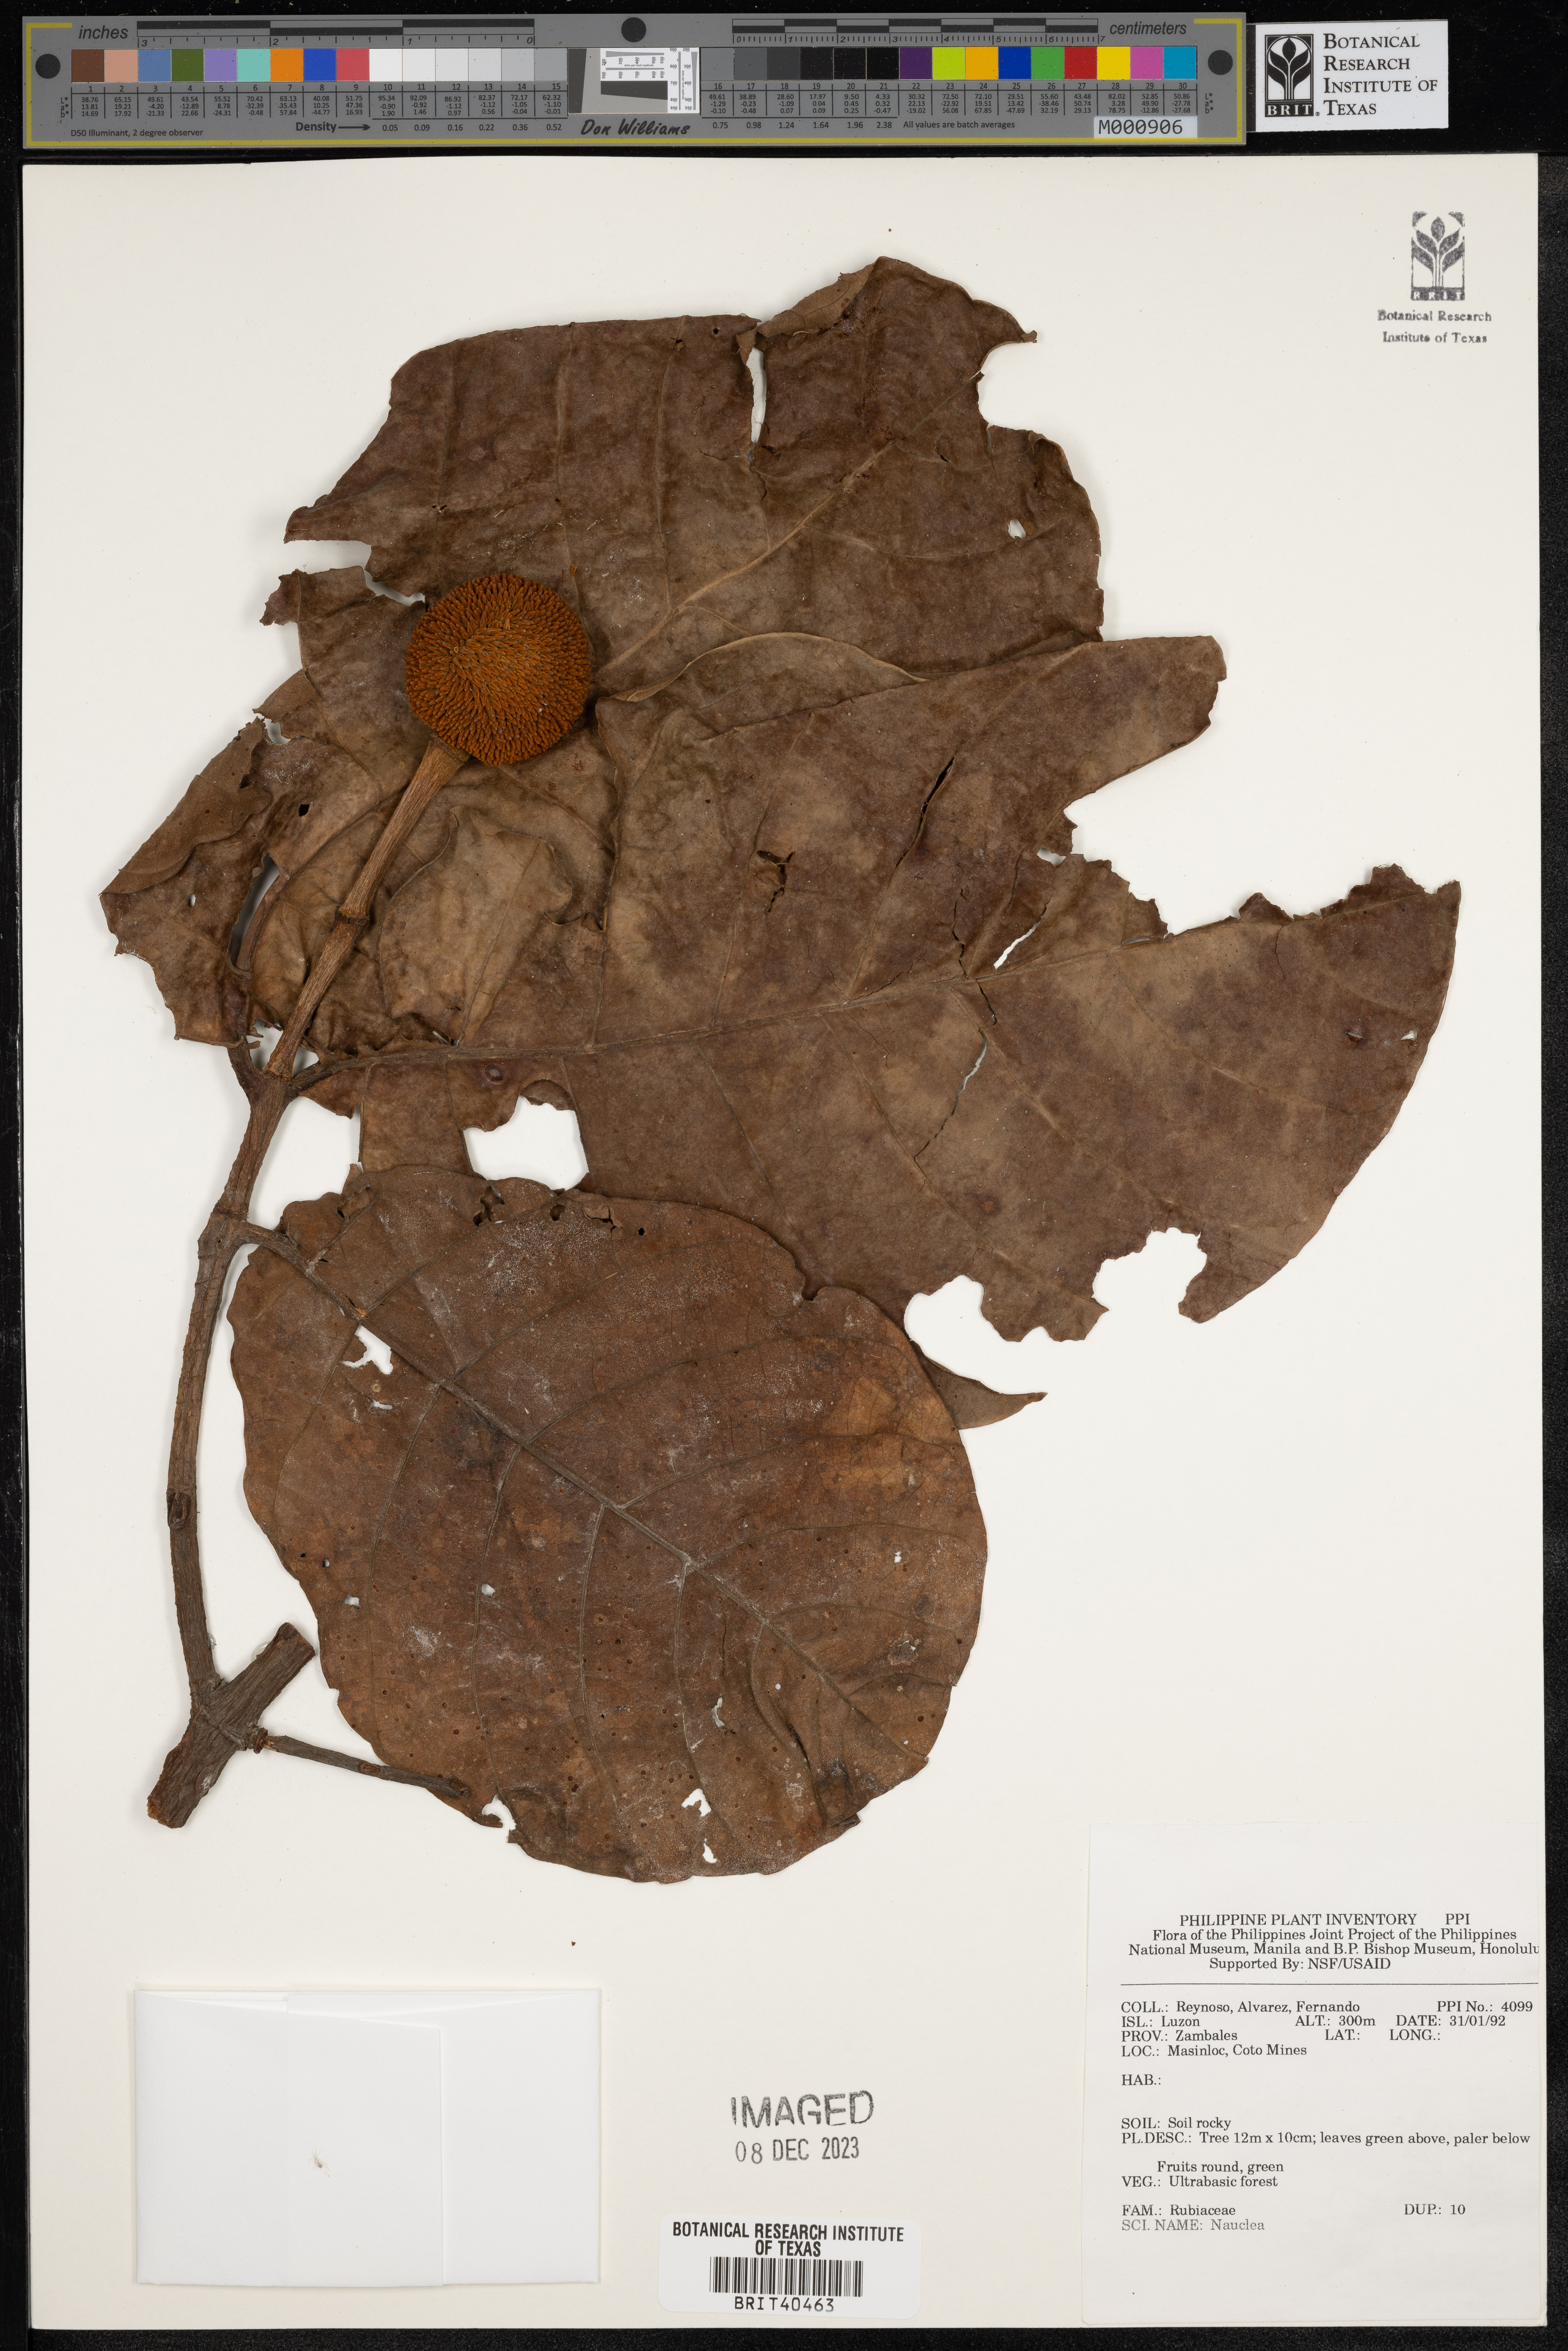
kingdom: Plantae
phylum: Tracheophyta
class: Magnoliopsida
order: Gentianales
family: Rubiaceae
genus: Nauclea
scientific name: Nauclea
